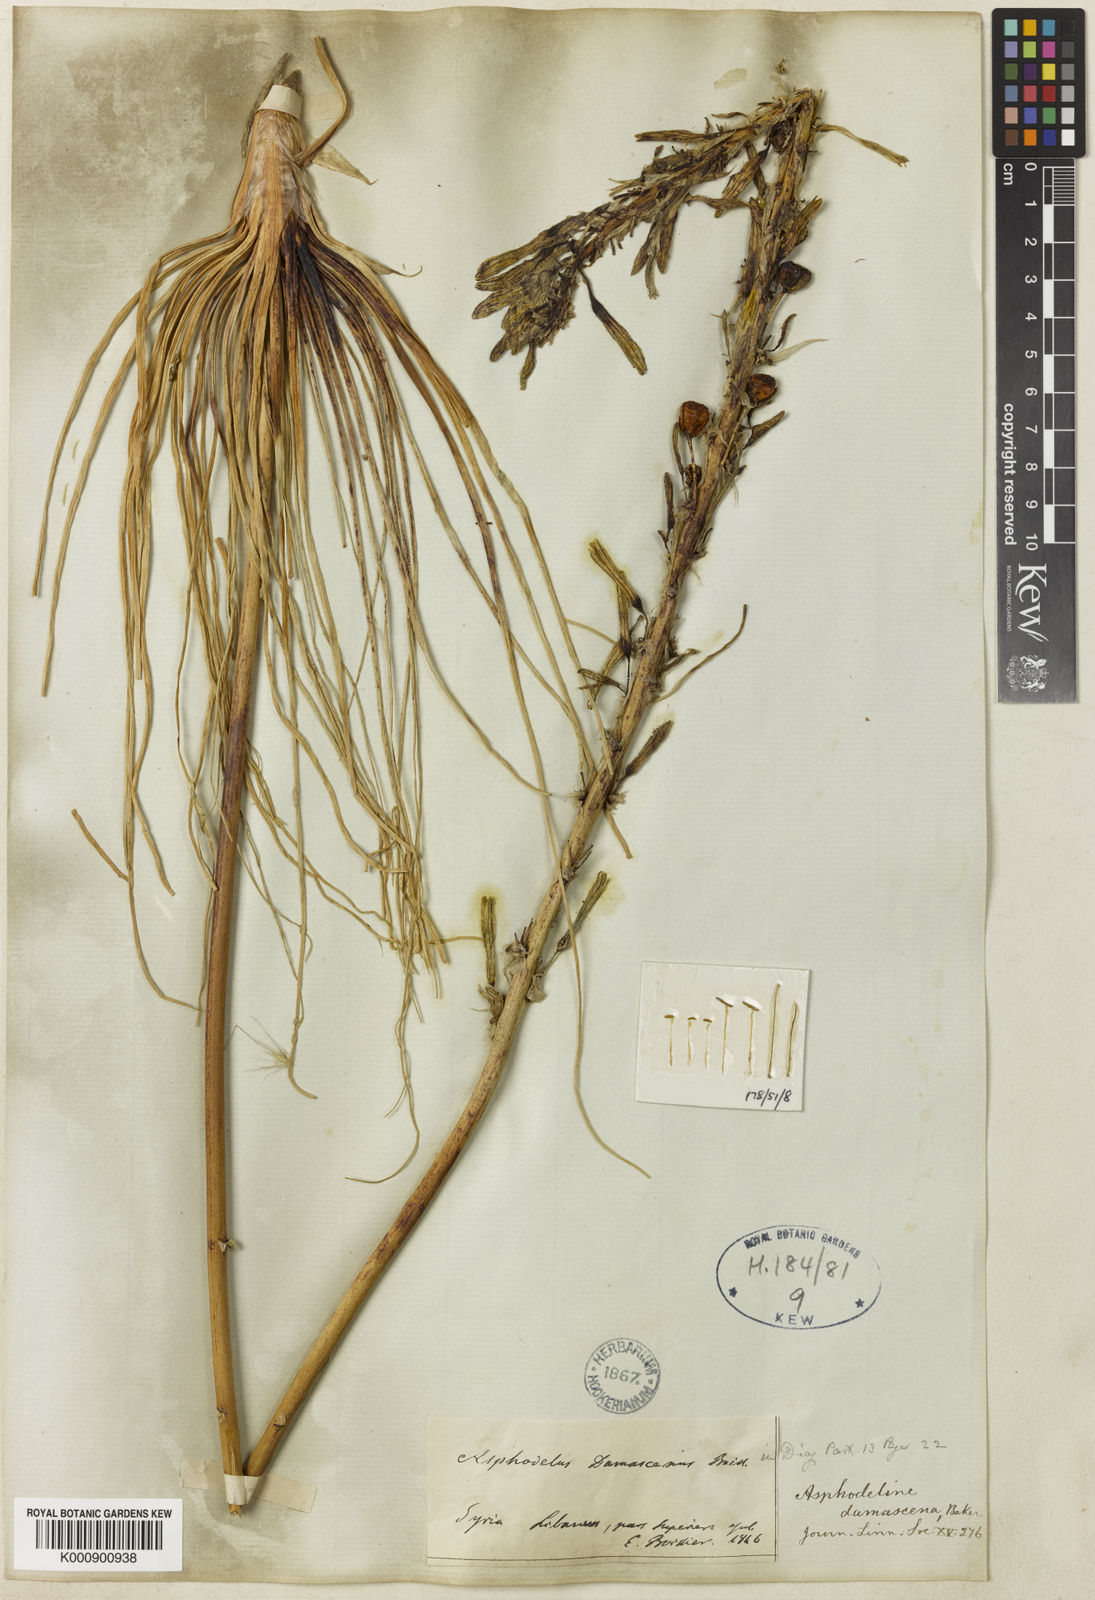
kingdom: Plantae
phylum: Tracheophyta
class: Liliopsida
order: Asparagales
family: Asphodelaceae
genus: Asphodeline
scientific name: Asphodeline damascena
